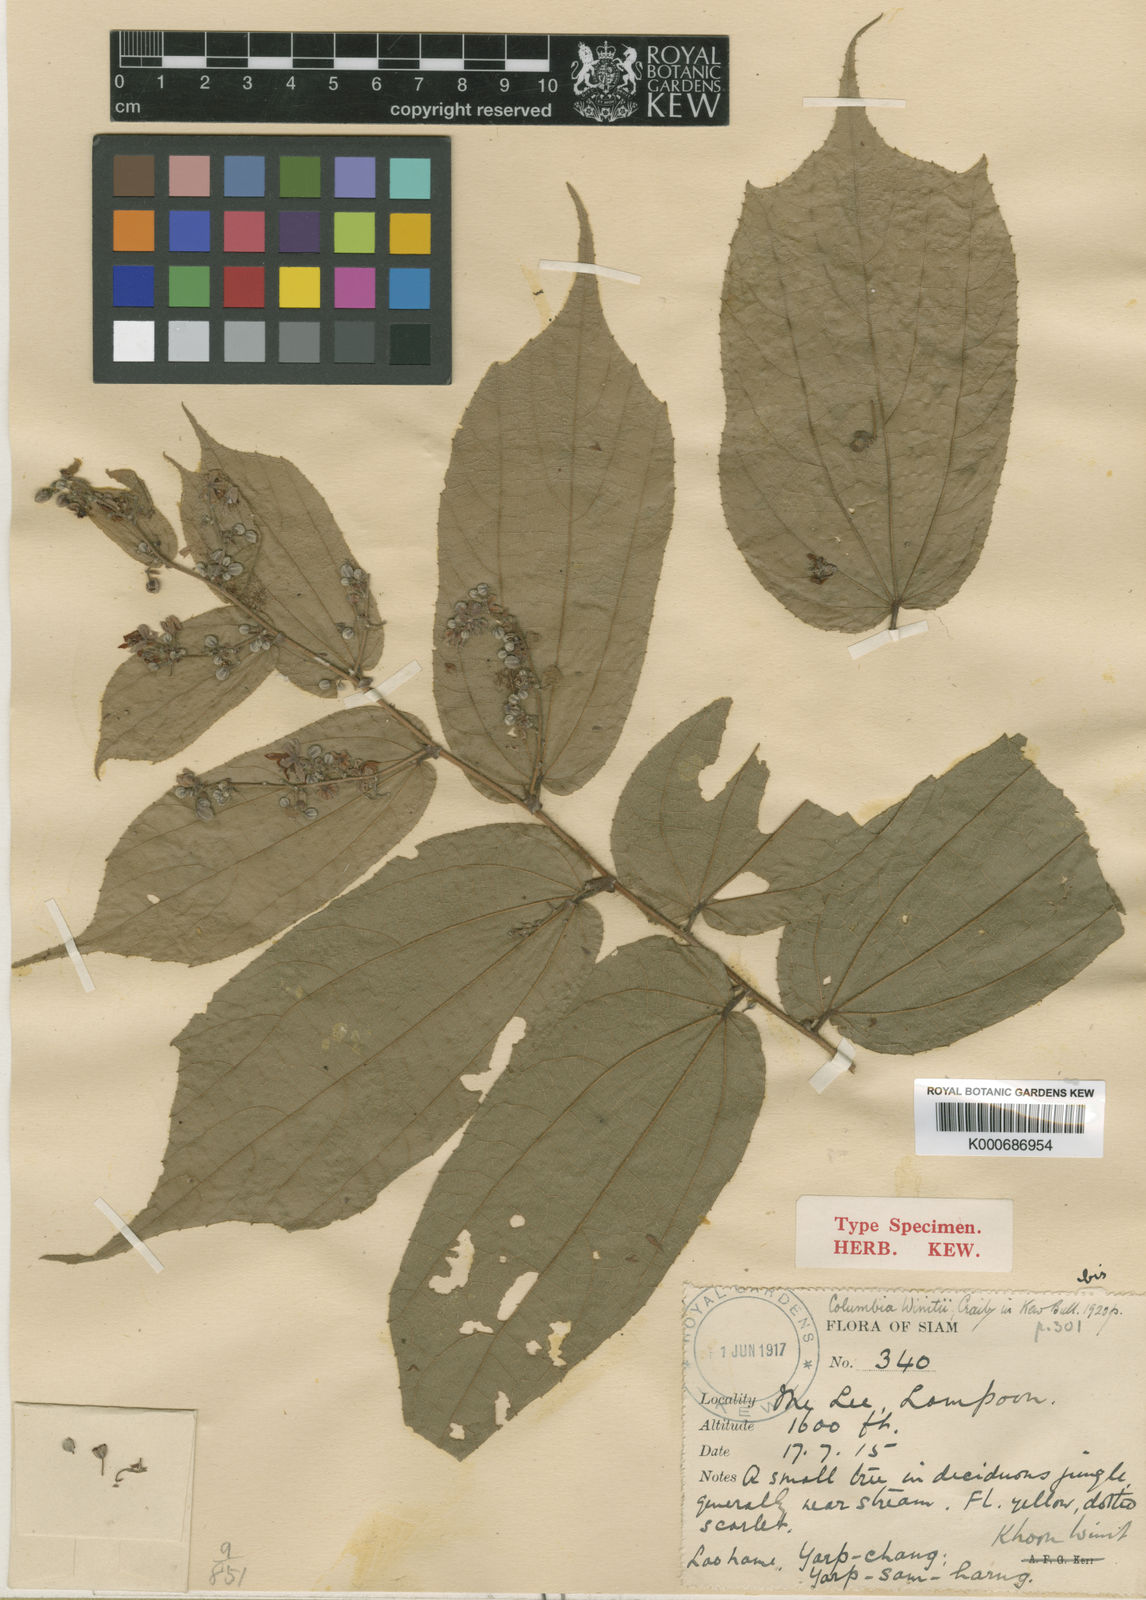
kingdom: Plantae
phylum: Tracheophyta
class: Magnoliopsida
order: Malvales
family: Malvaceae
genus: Colona
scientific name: Colona winitii
